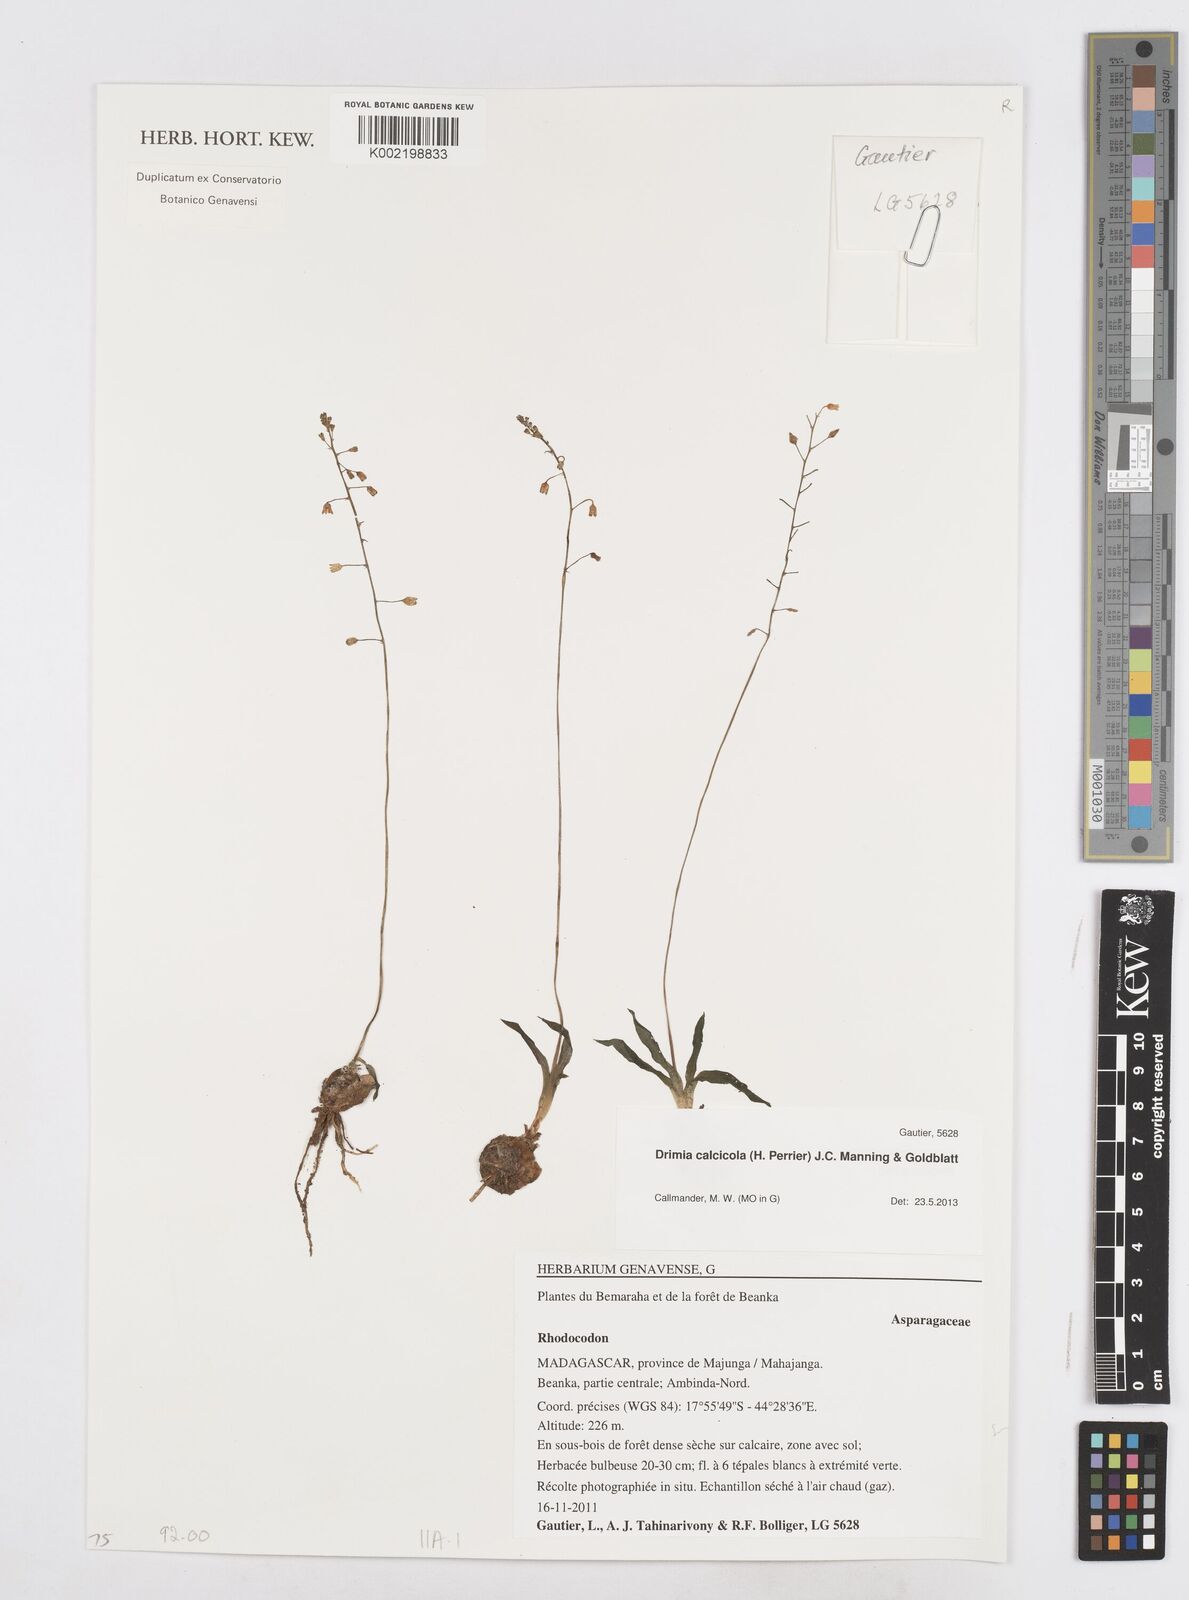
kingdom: Plantae
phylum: Tracheophyta
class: Liliopsida
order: Asparagales
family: Asparagaceae
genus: Drimia
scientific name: Drimia Rhodocodon calcicola
